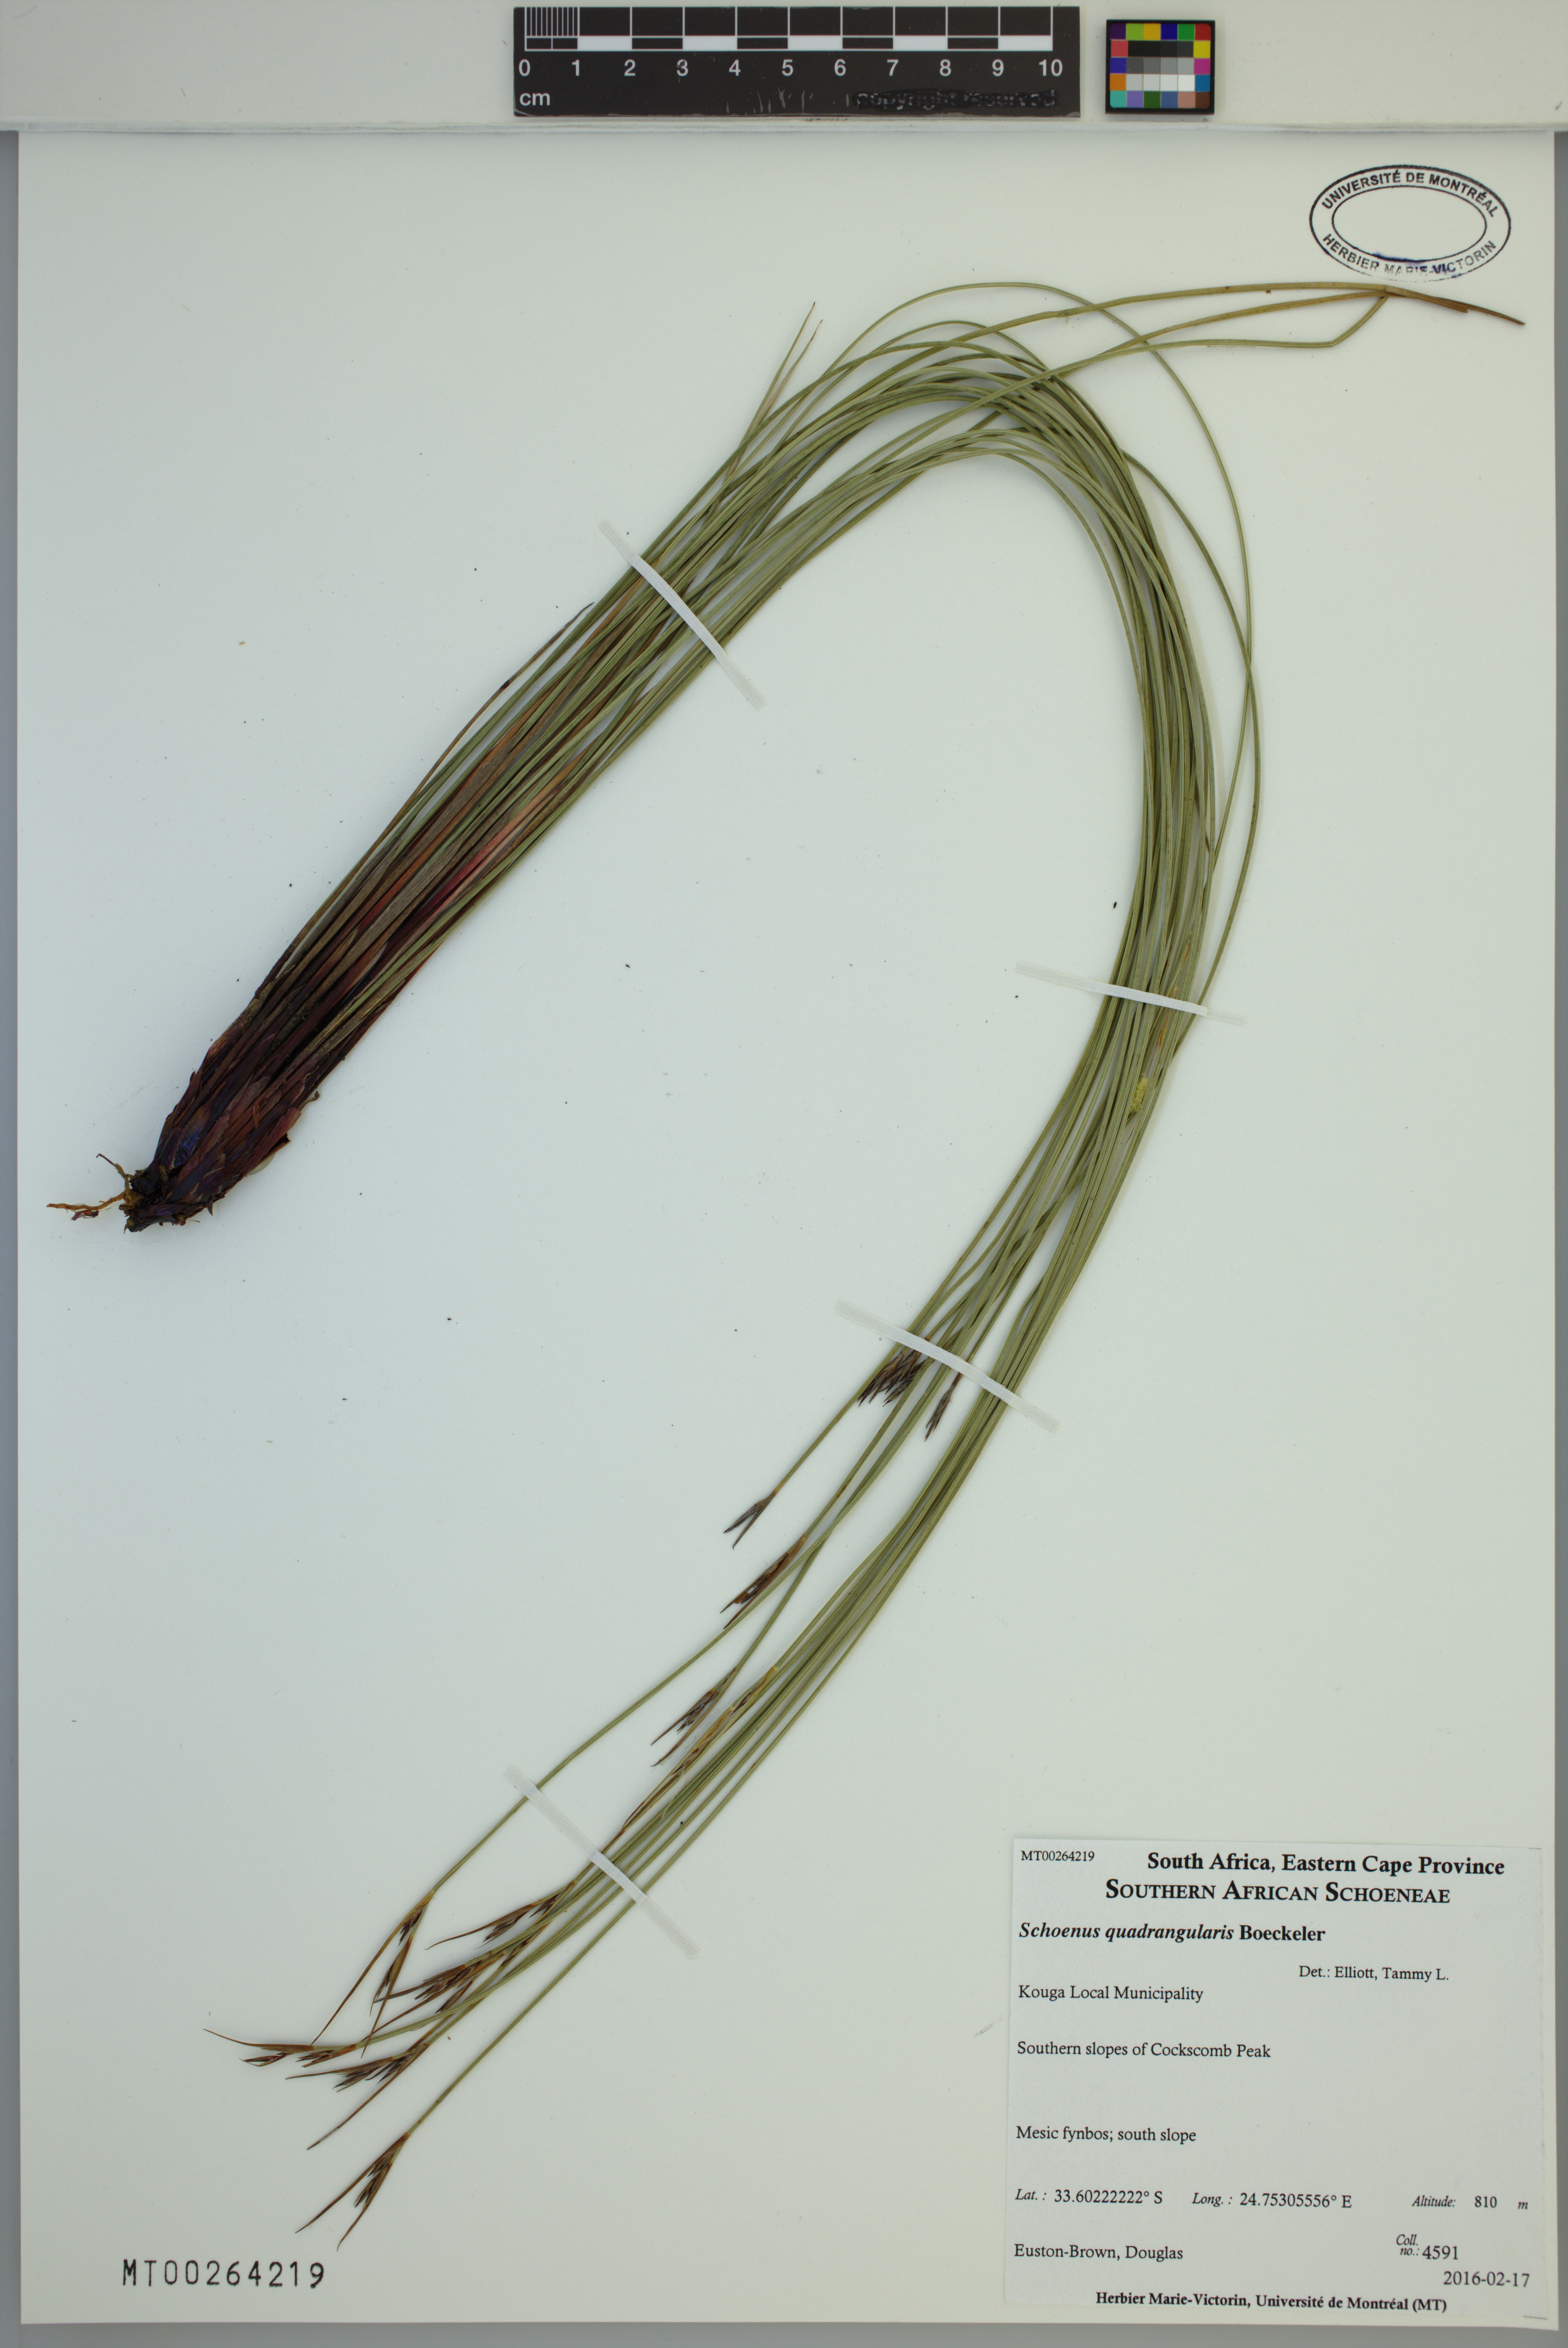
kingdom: Plantae
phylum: Tracheophyta
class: Liliopsida
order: Poales
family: Cyperaceae
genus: Schoenus
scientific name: Schoenus quadrangularis
